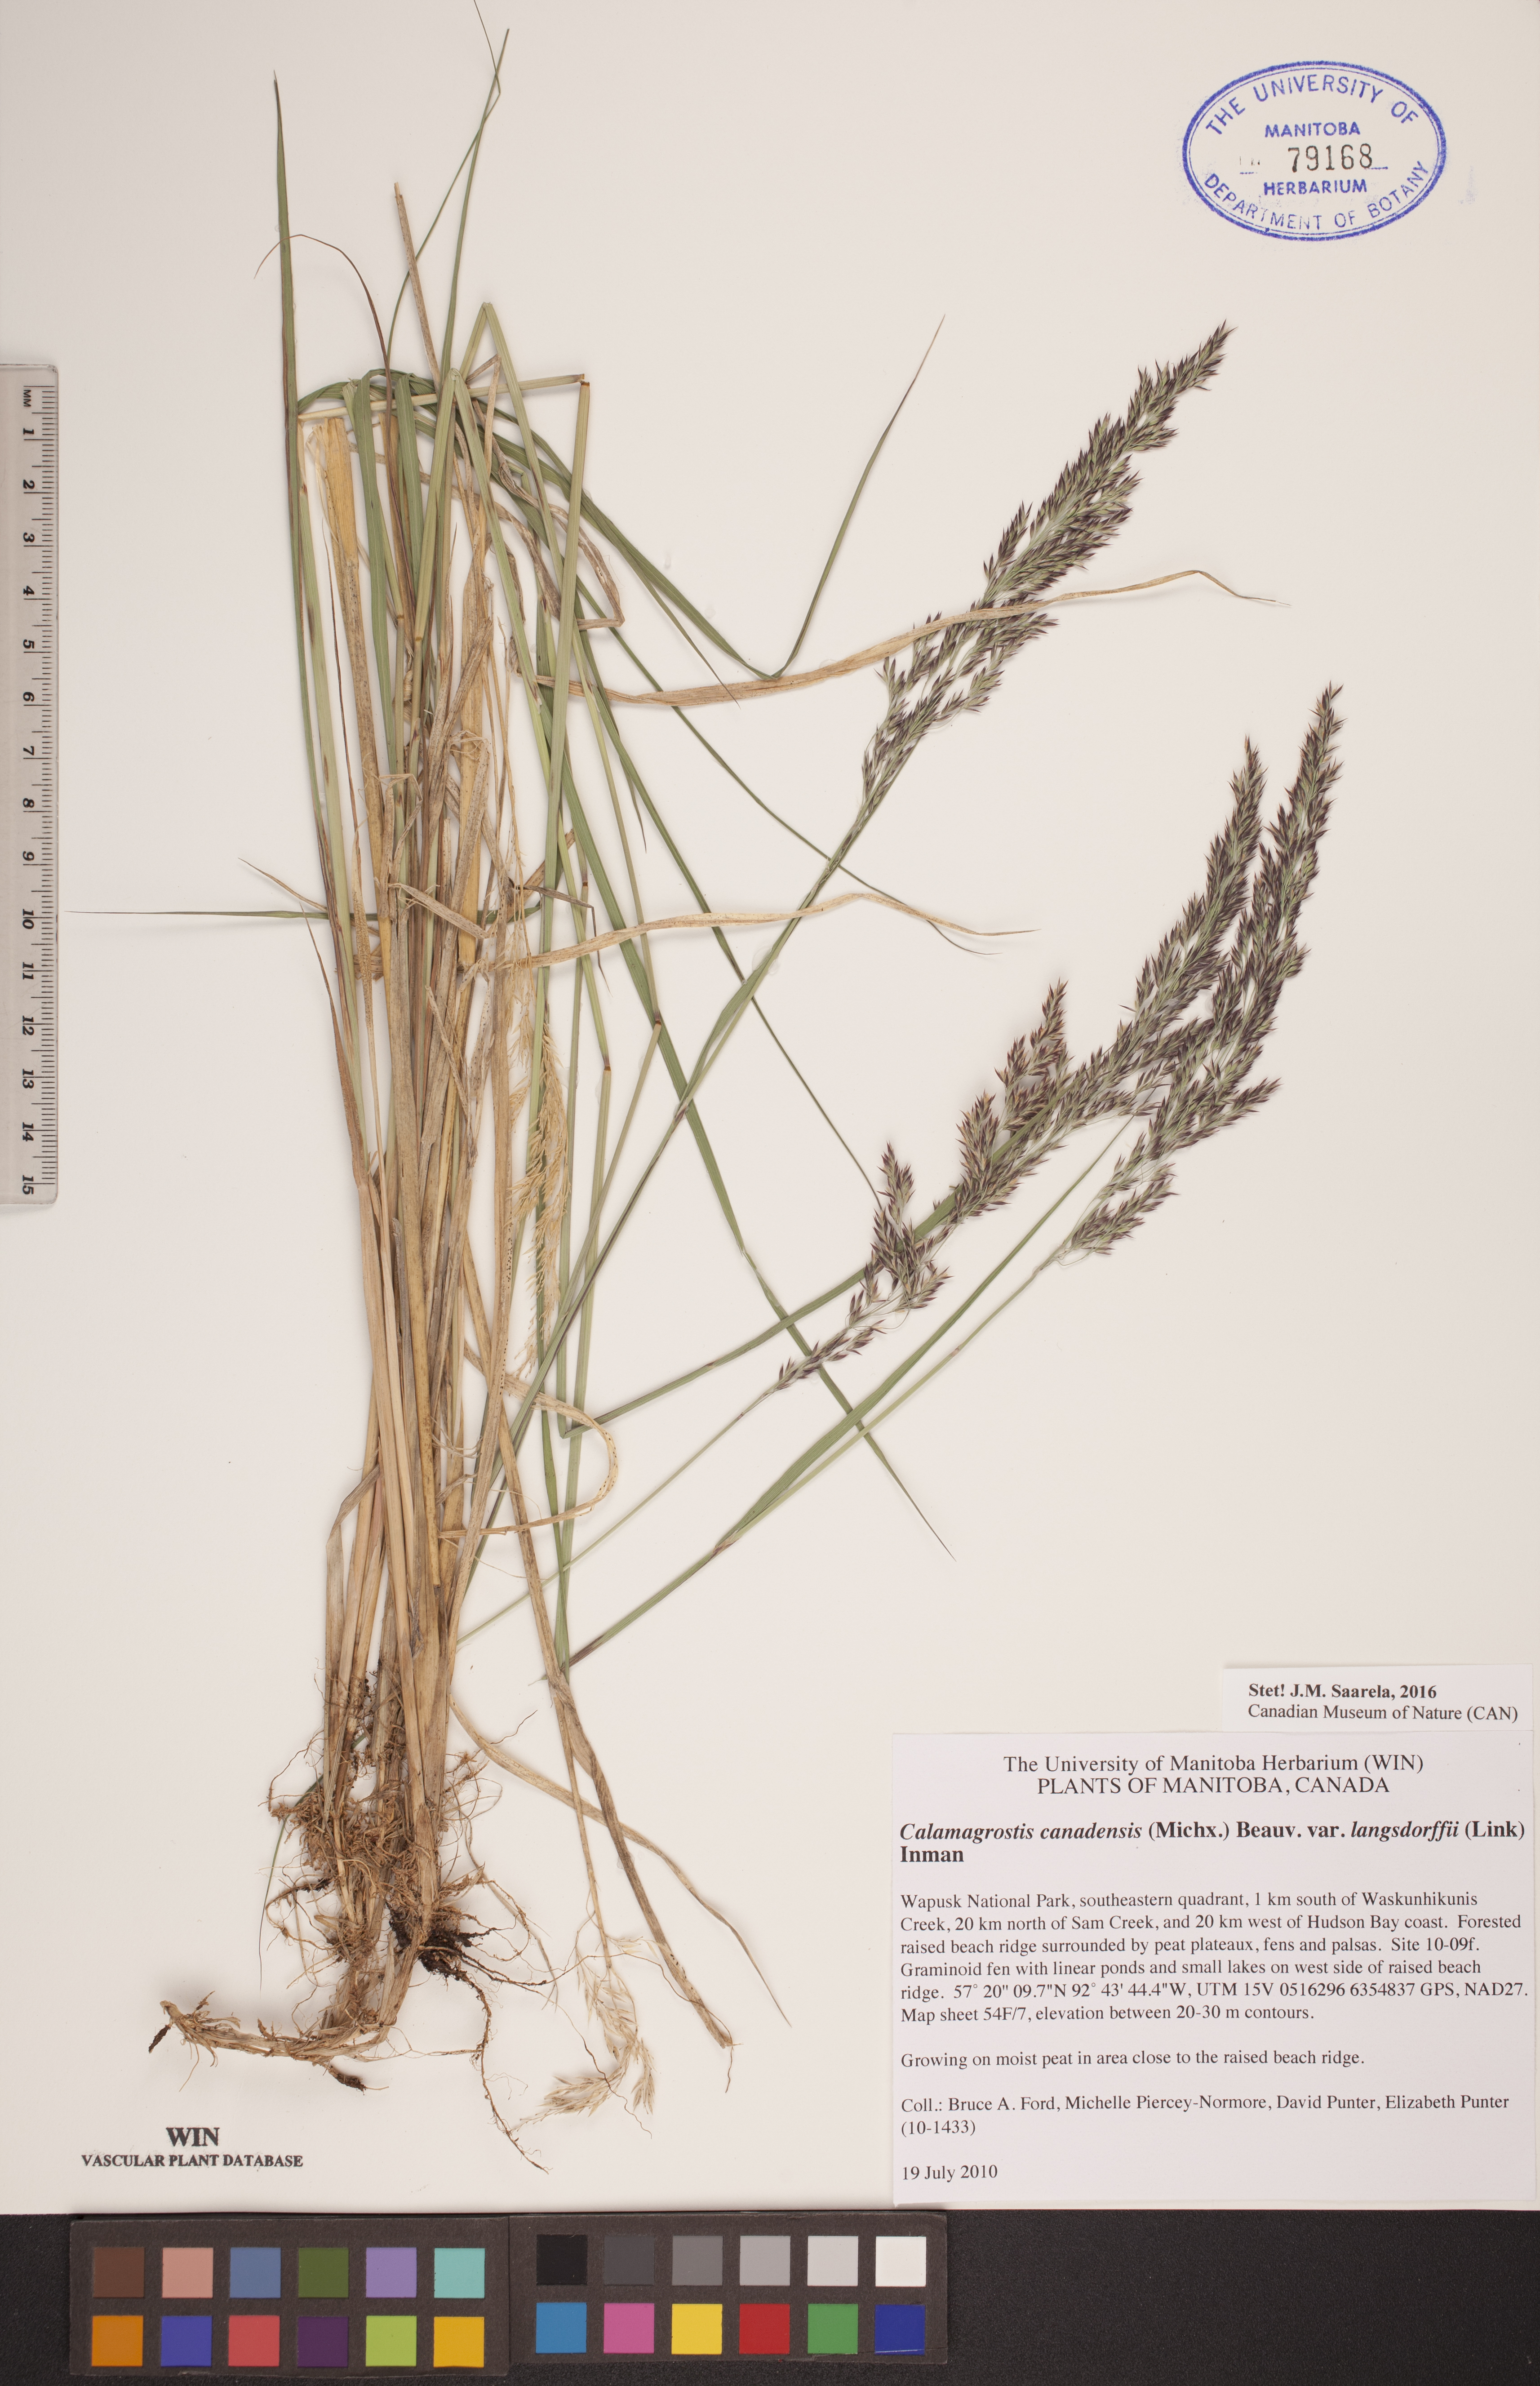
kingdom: Plantae
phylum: Tracheophyta
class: Liliopsida
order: Poales
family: Poaceae
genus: Calamagrostis
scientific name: Calamagrostis purpurea
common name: Scandinavian small-reed
